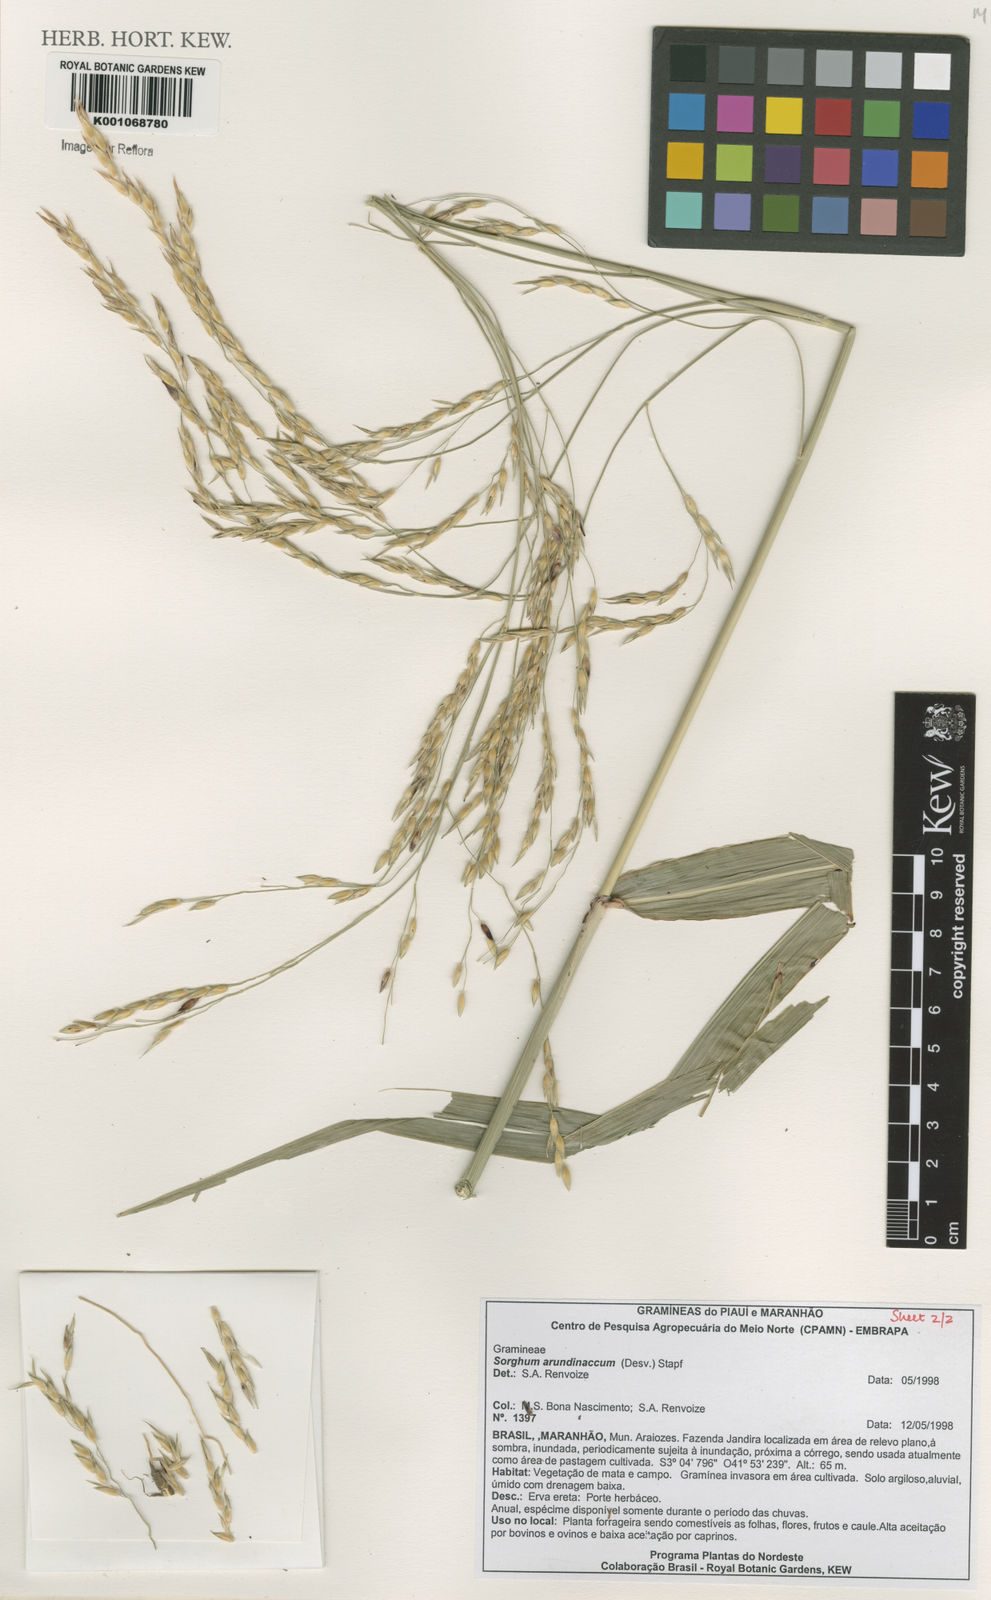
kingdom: Plantae
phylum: Tracheophyta
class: Liliopsida
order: Poales
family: Poaceae
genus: Sorghum
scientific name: Sorghum arundinaceum
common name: Sorghum
